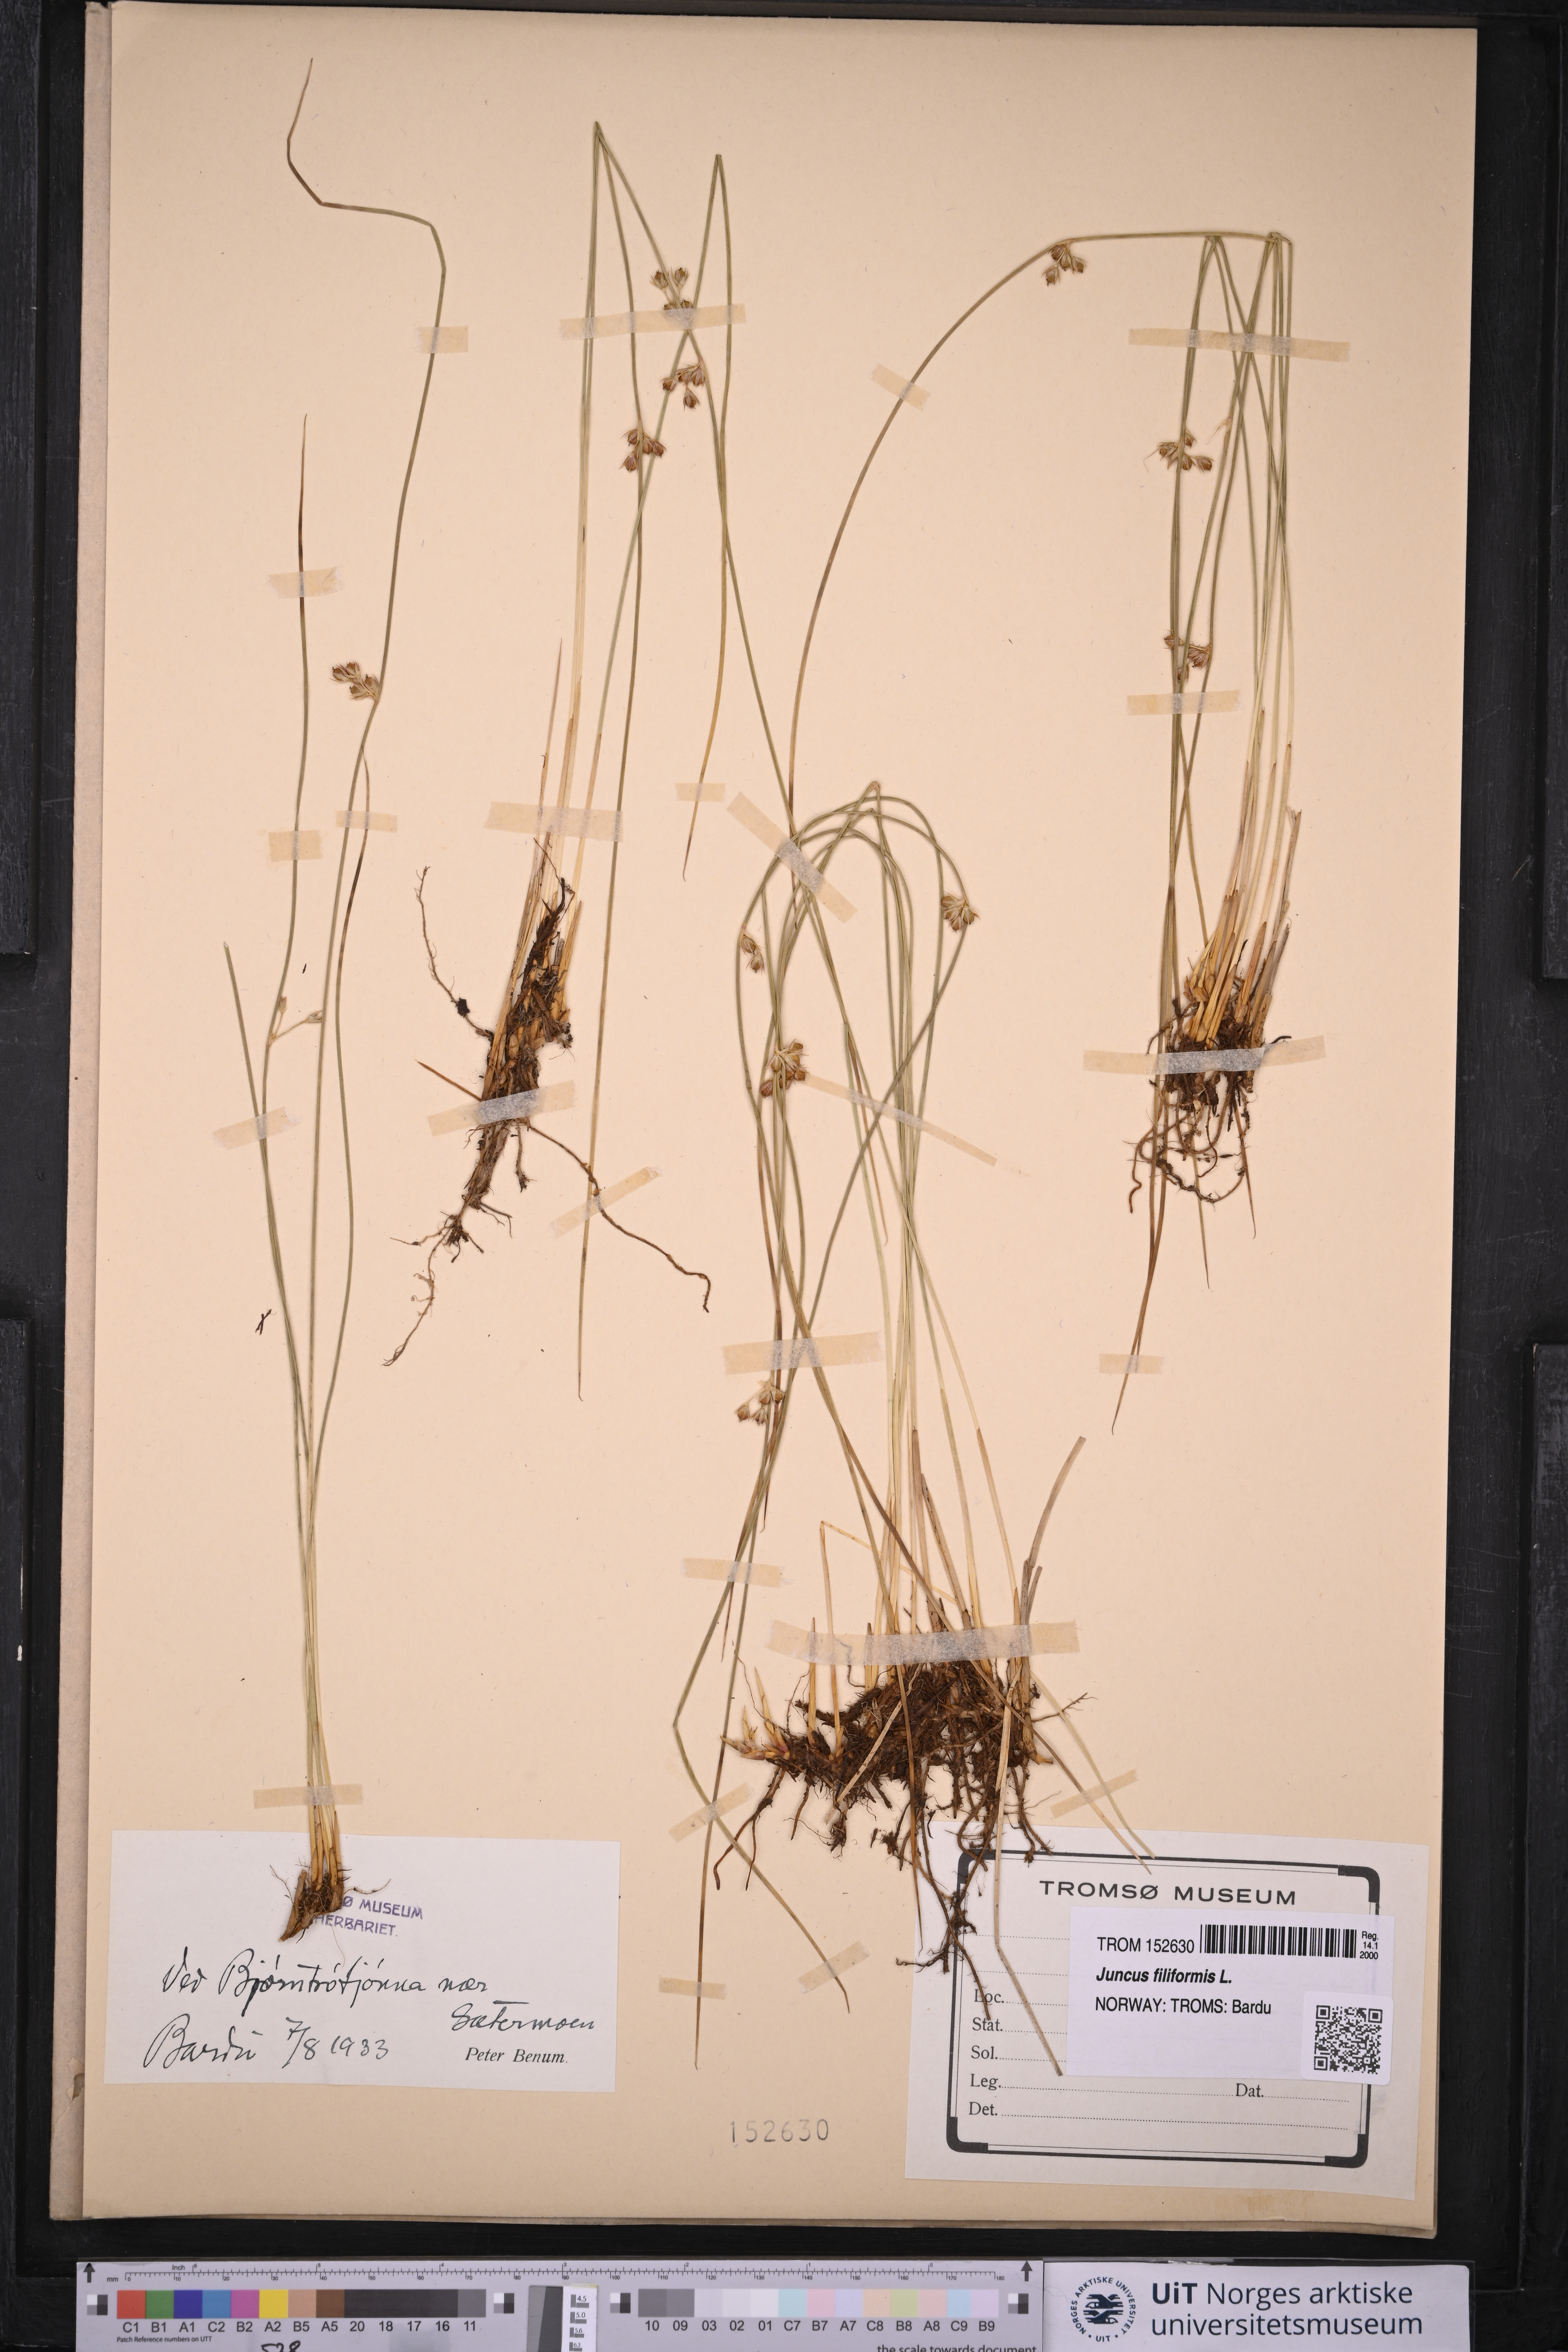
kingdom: Plantae
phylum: Tracheophyta
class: Liliopsida
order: Poales
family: Juncaceae
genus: Juncus
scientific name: Juncus filiformis
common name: Thread rush
